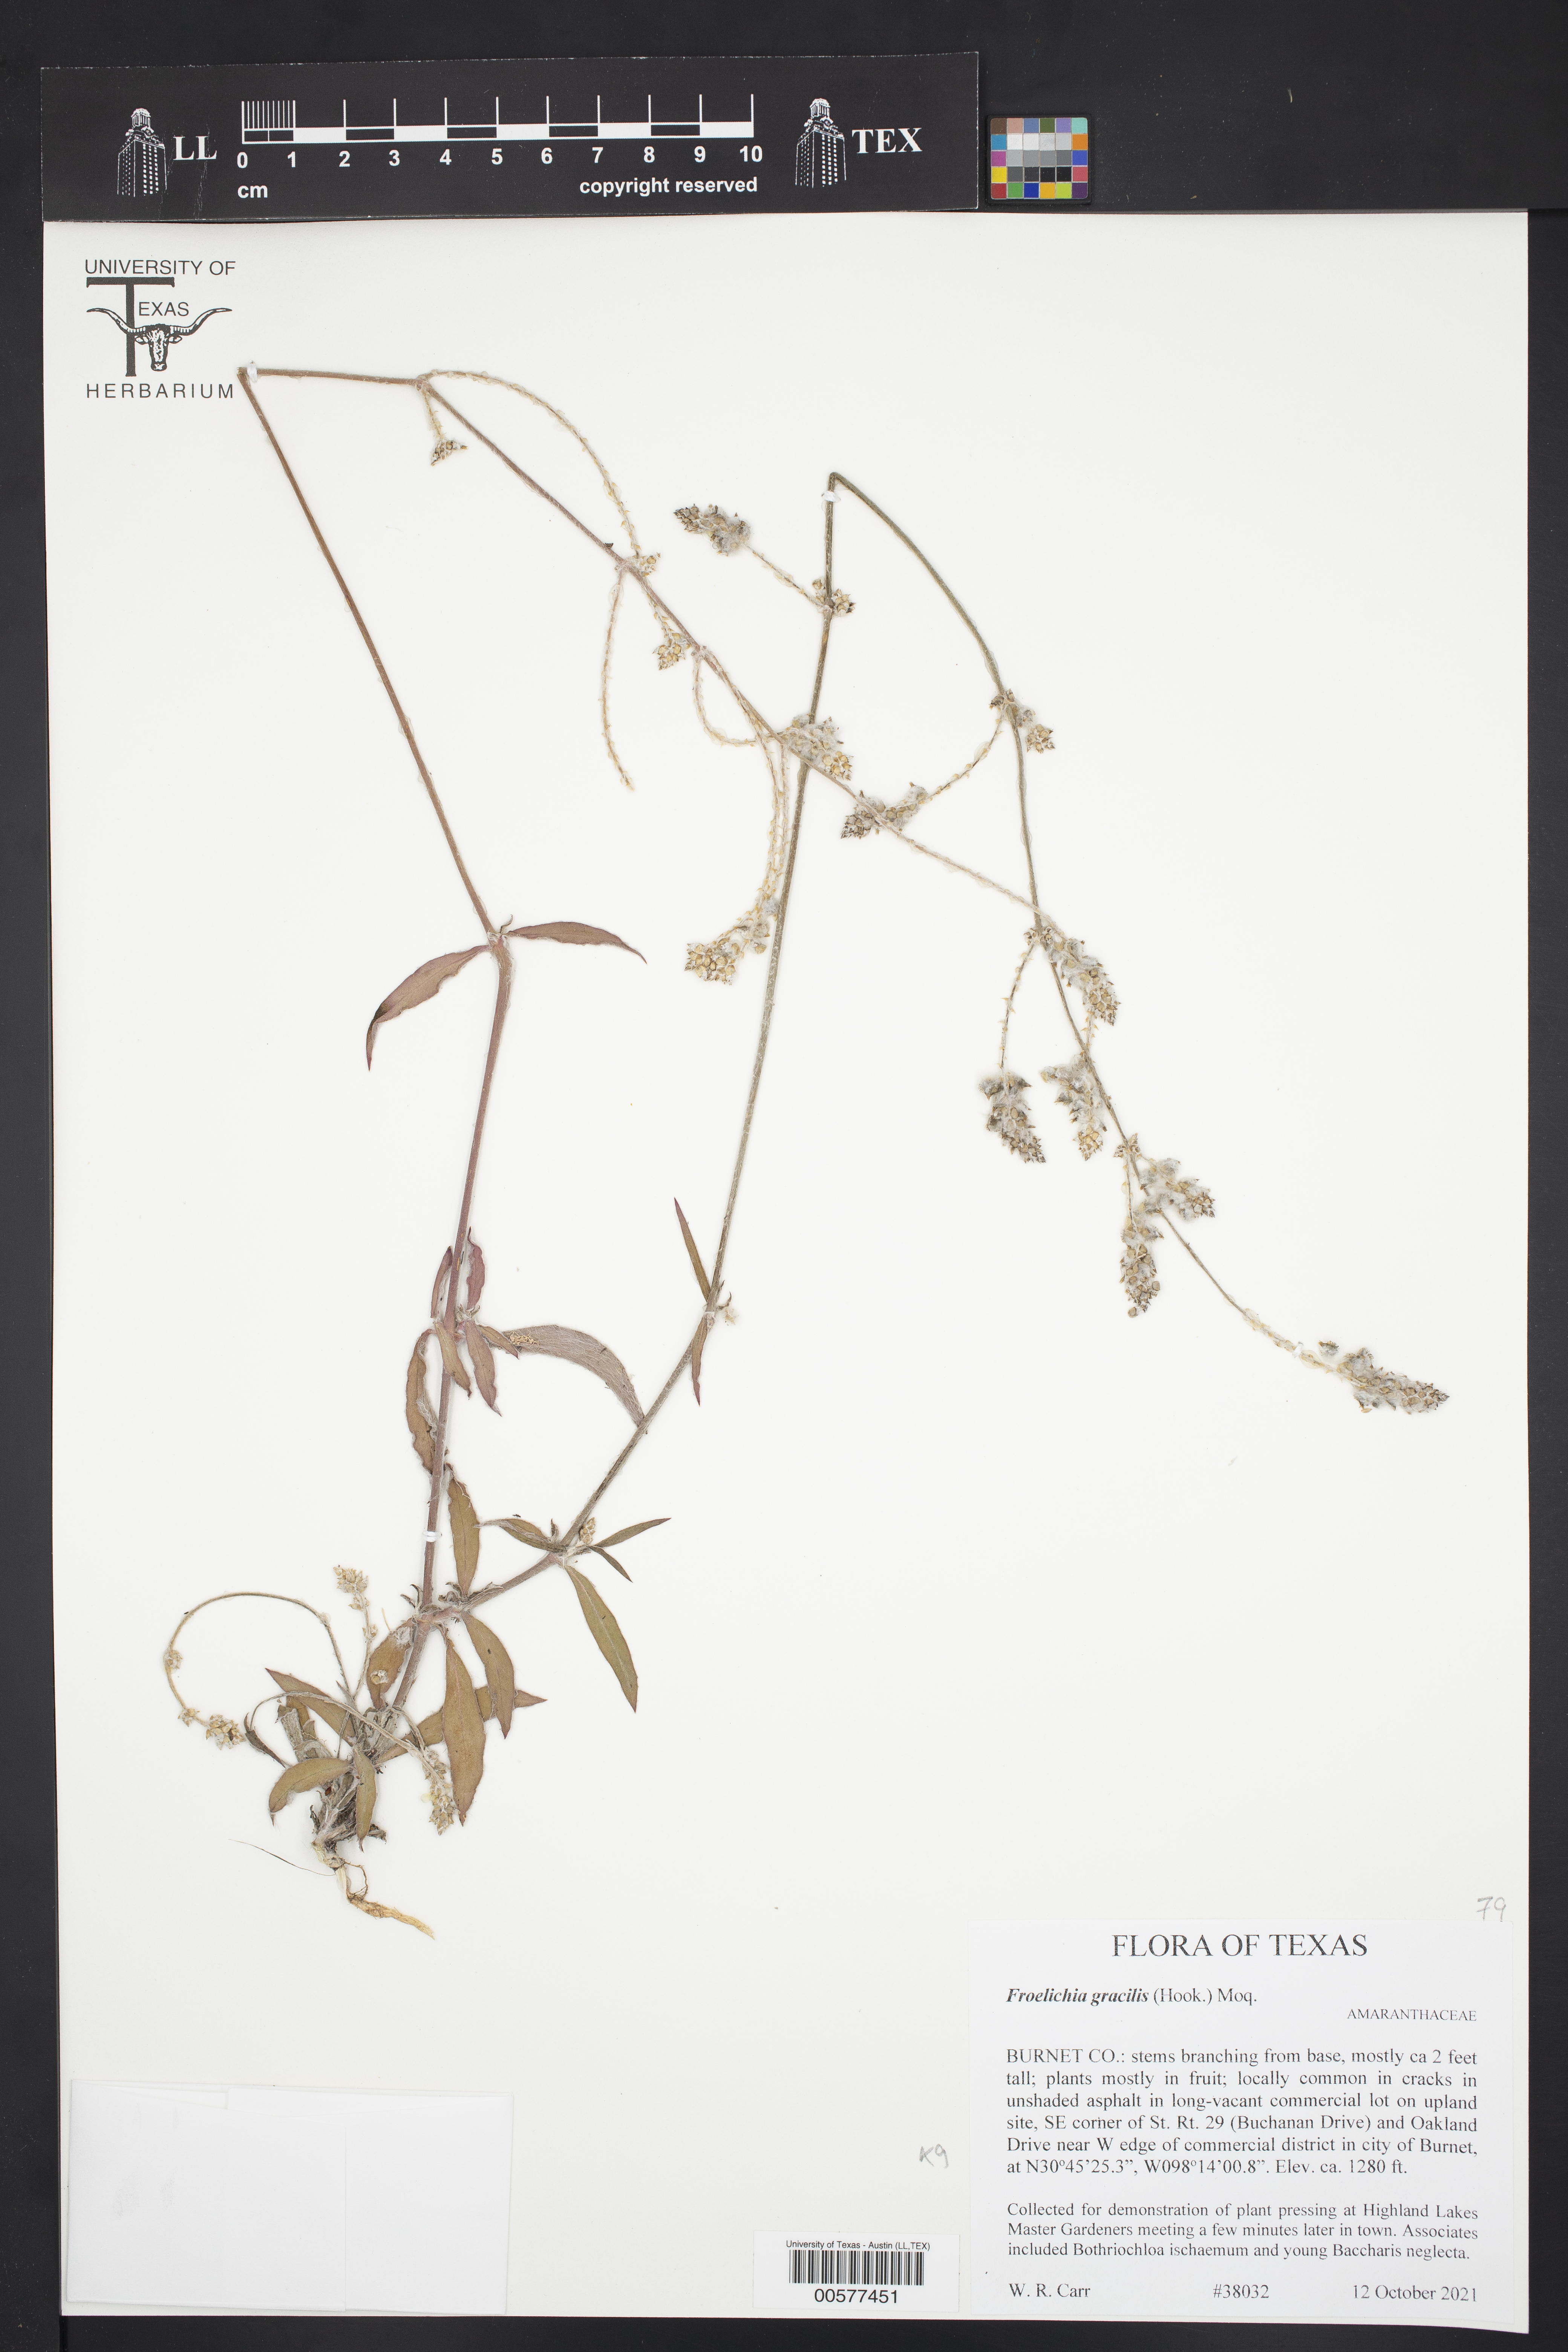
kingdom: Plantae
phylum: Tracheophyta
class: Magnoliopsida
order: Caryophyllales
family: Amaranthaceae
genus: Froelichia
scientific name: Froelichia gracilis
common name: Slender cottonweed
